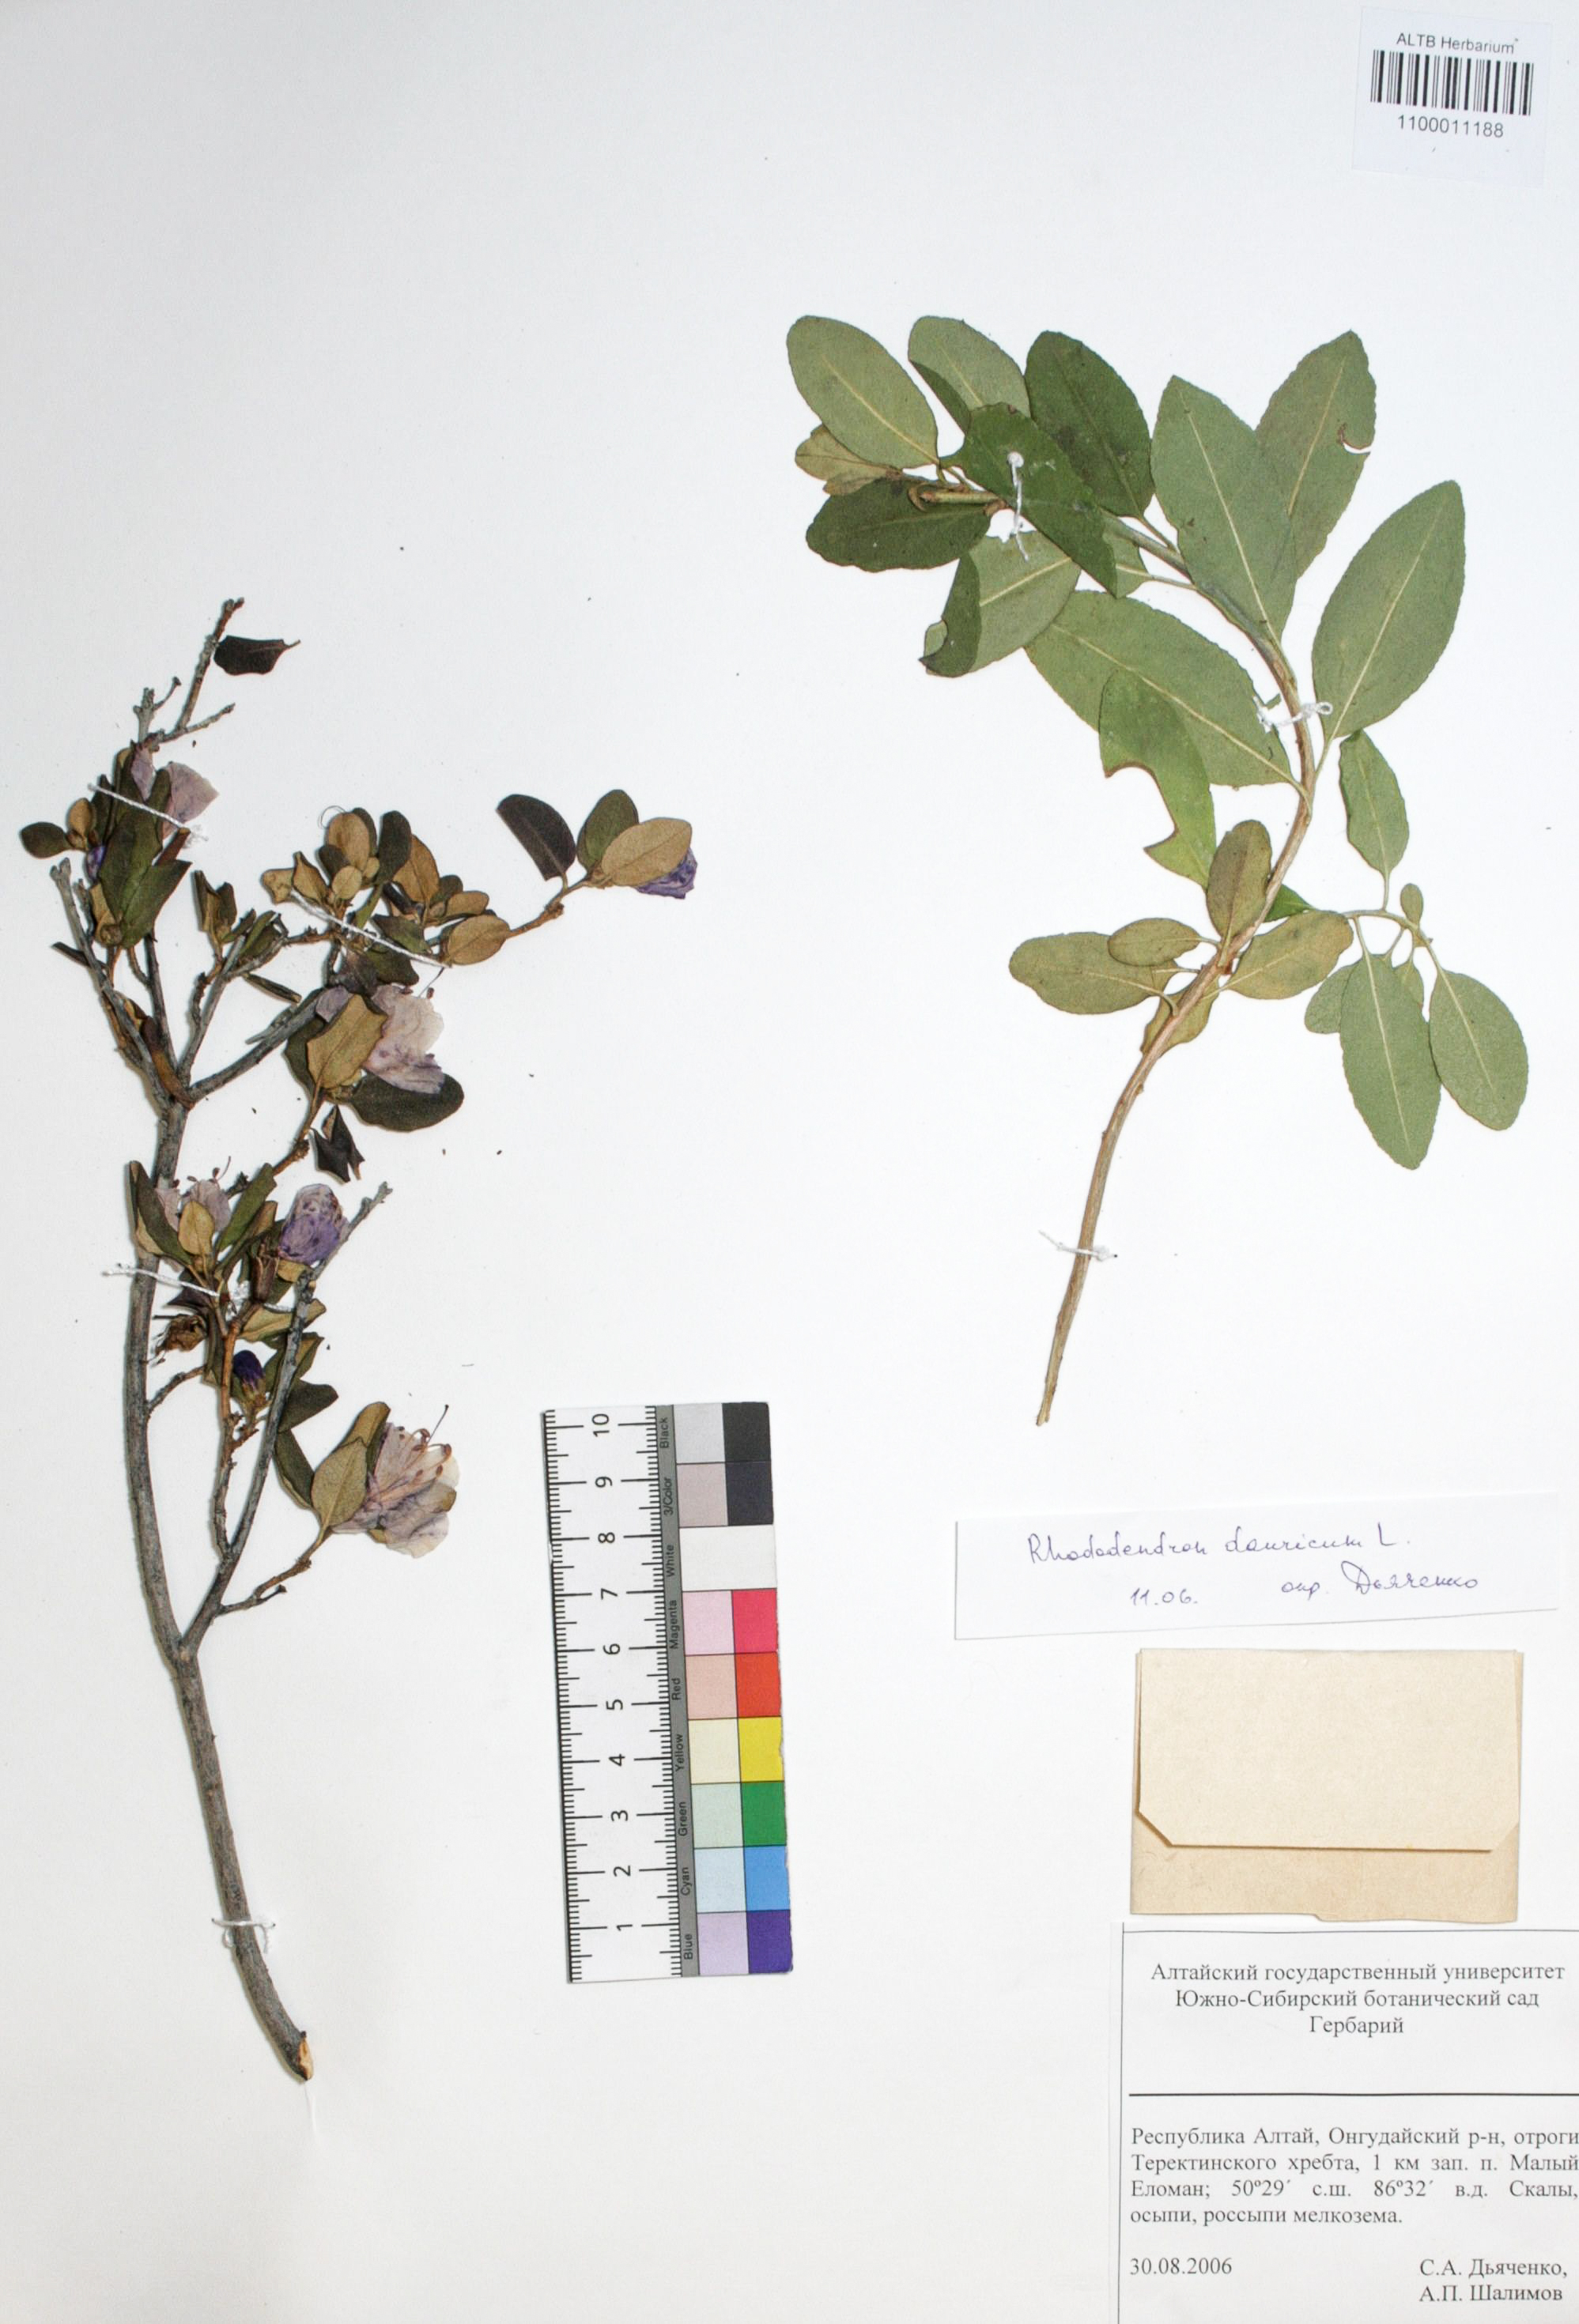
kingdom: Plantae
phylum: Tracheophyta
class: Magnoliopsida
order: Ericales
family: Ericaceae
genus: Rhododendron
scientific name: Rhododendron dahuricum
